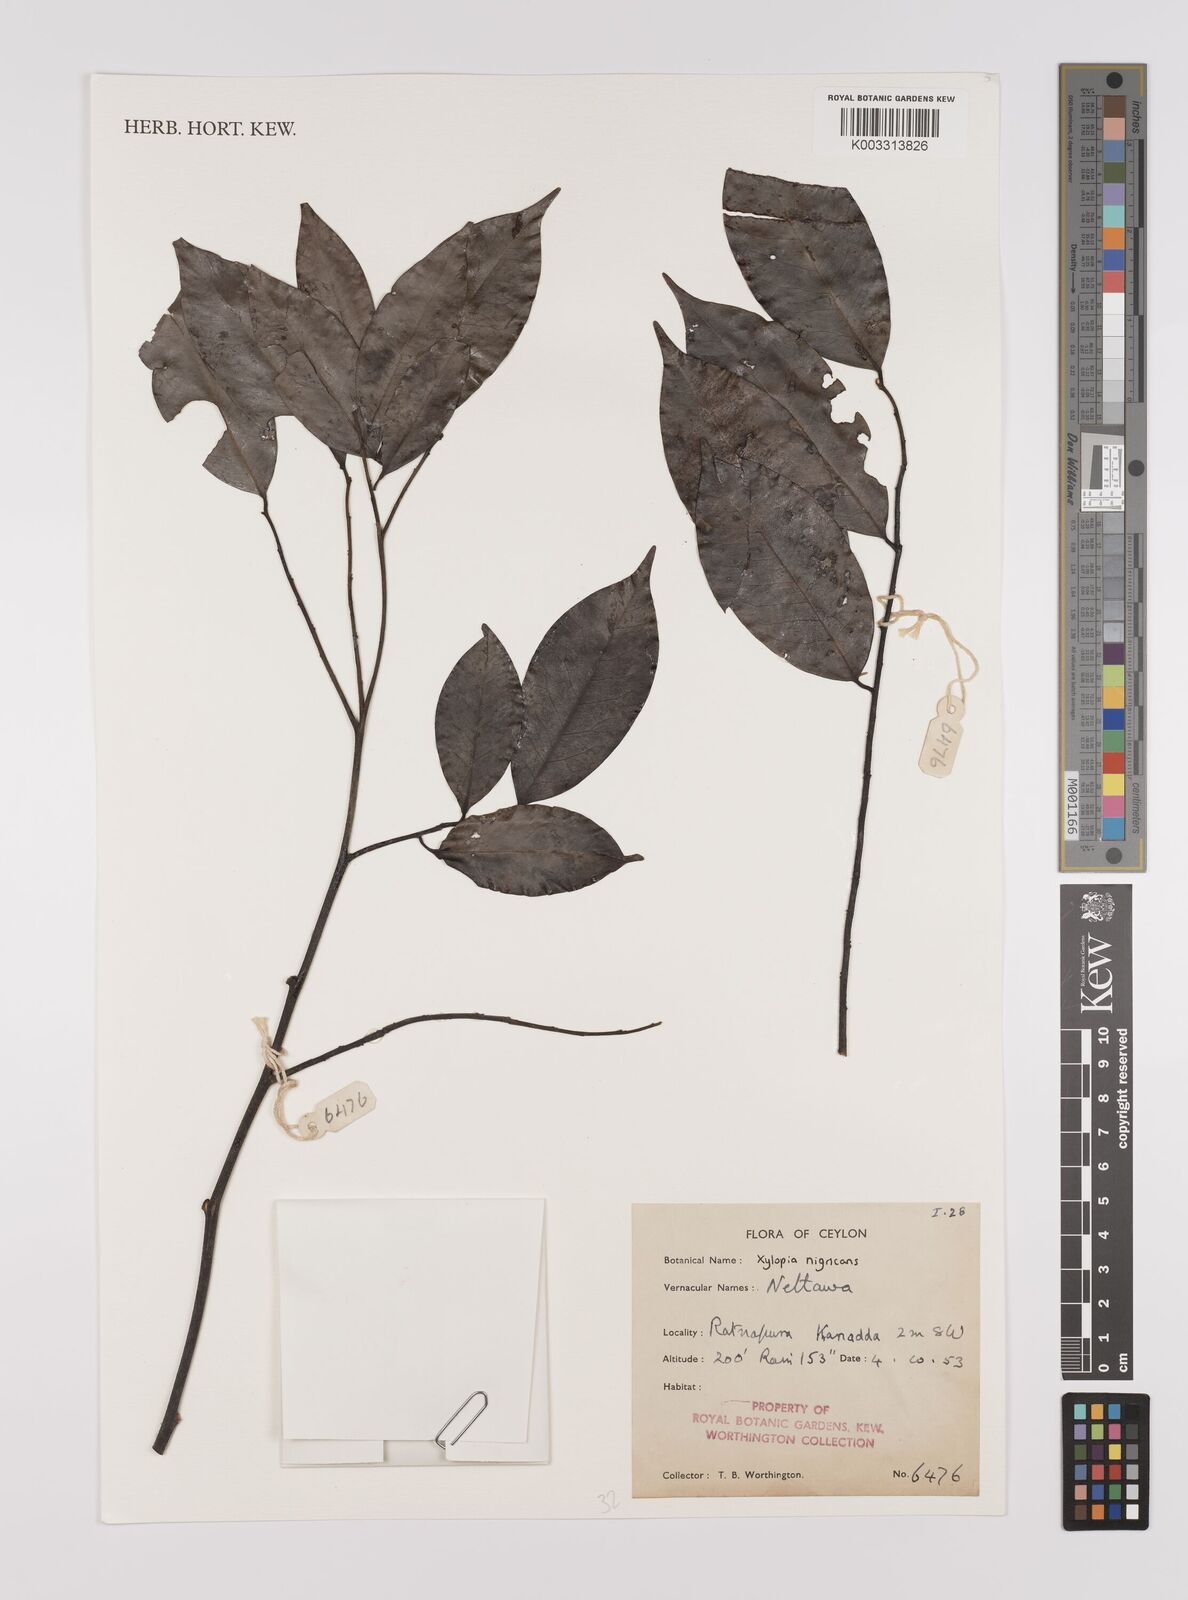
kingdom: Plantae
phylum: Tracheophyta
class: Magnoliopsida
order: Magnoliales
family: Annonaceae
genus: Xylopia
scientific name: Xylopia nigricans
